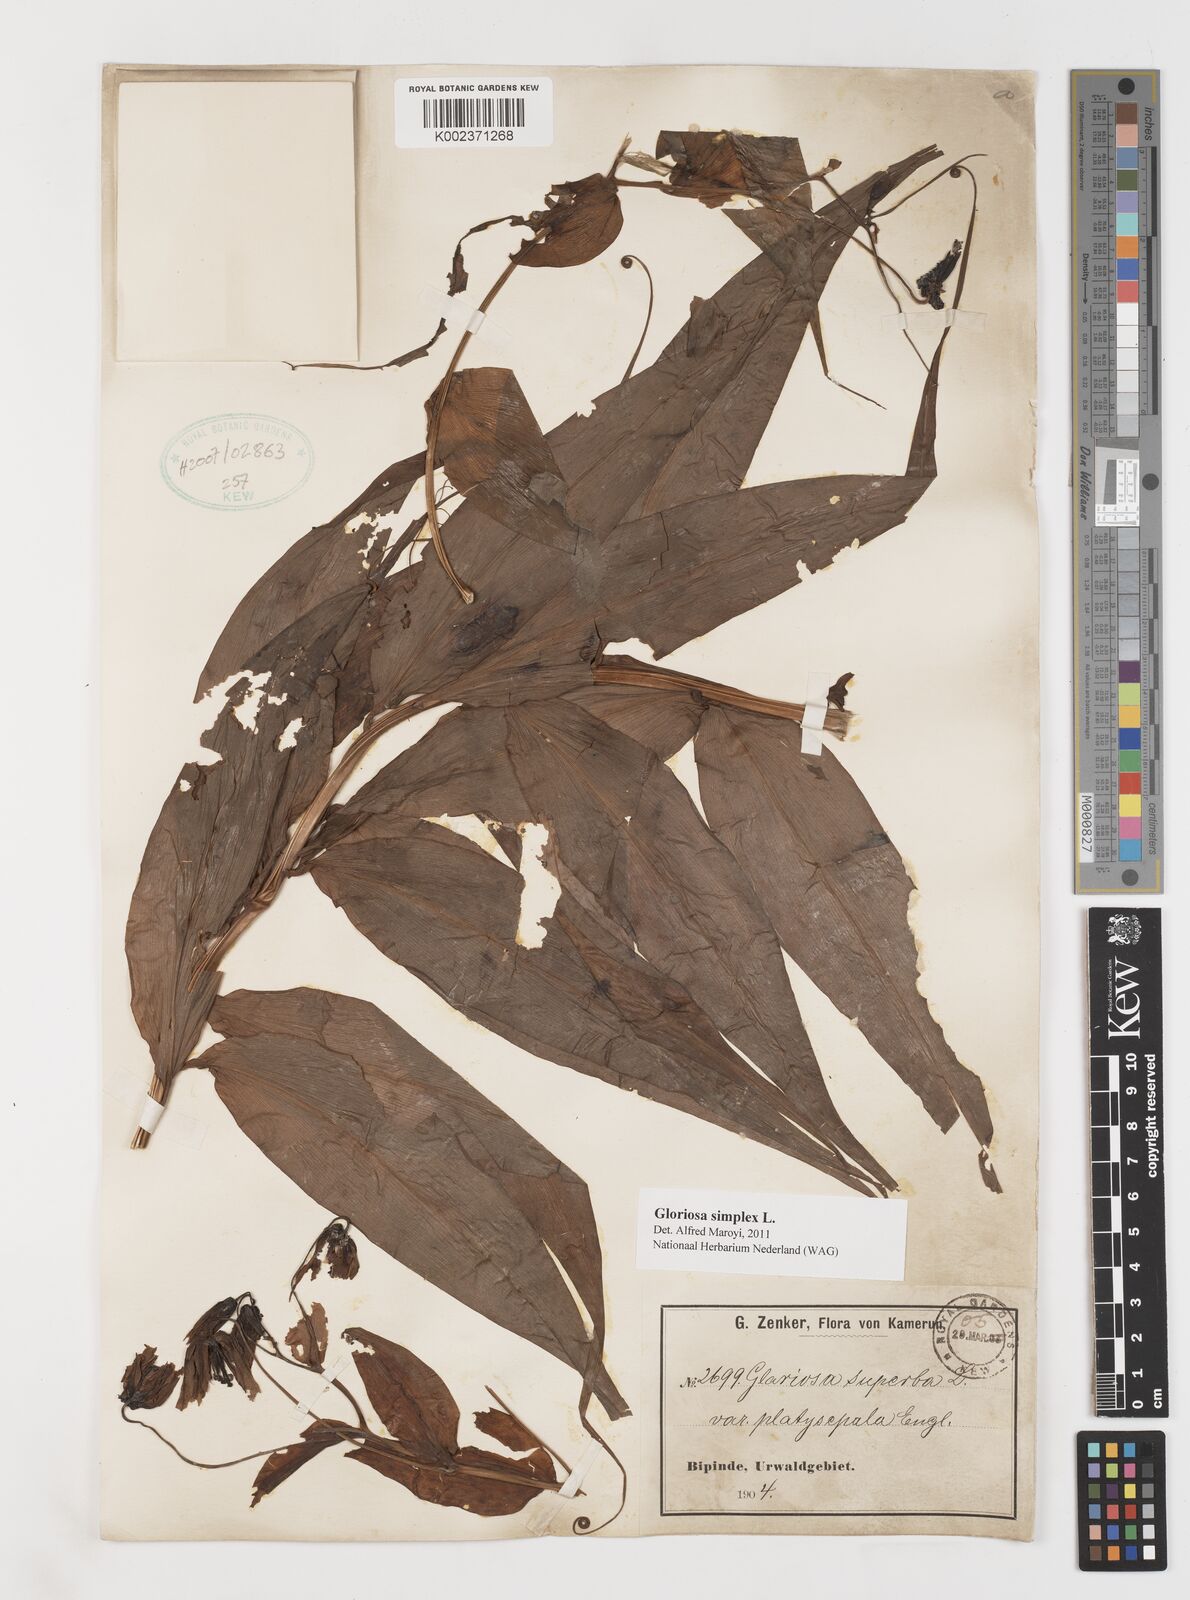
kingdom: Plantae
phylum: Tracheophyta
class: Liliopsida
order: Liliales
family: Colchicaceae
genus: Gloriosa
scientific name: Gloriosa simplex
